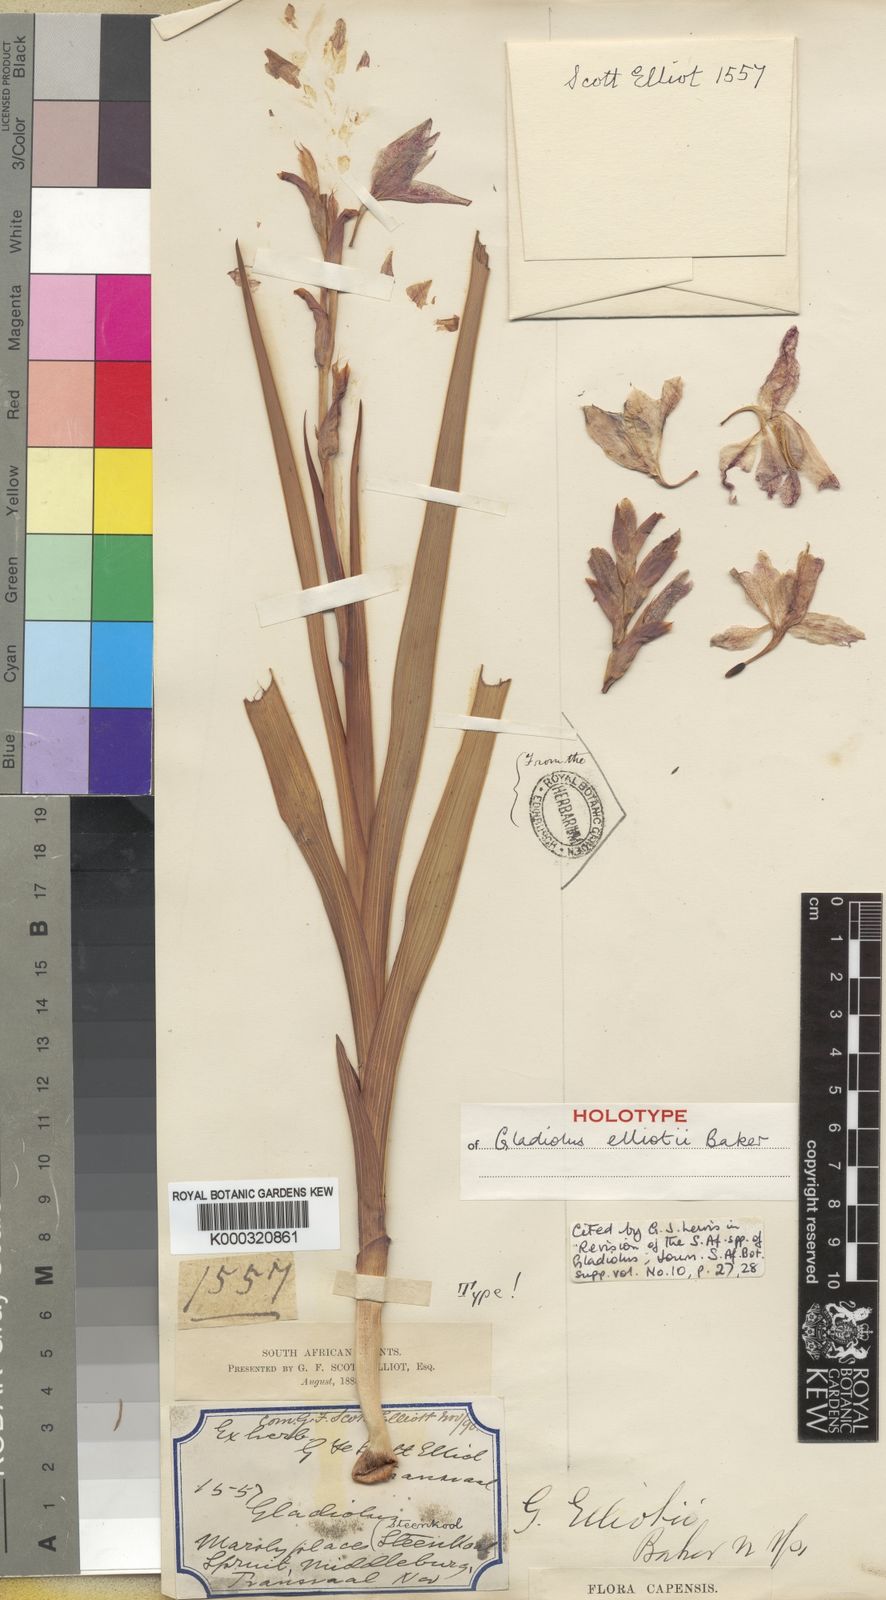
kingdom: Plantae
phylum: Tracheophyta
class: Liliopsida
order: Asparagales
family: Iridaceae
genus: Gladiolus
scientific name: Gladiolus elliotii
